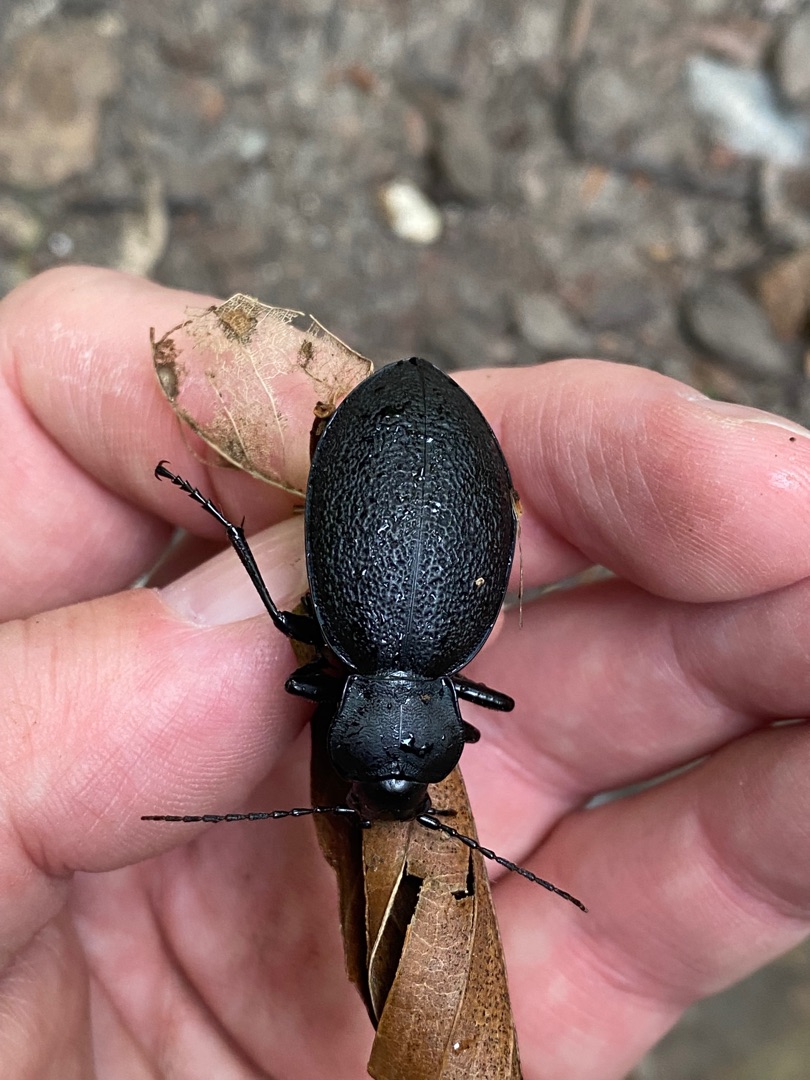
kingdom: Animalia
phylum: Arthropoda
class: Insecta
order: Coleoptera
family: Carabidae
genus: Carabus
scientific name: Carabus coriaceus
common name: Læderløber
